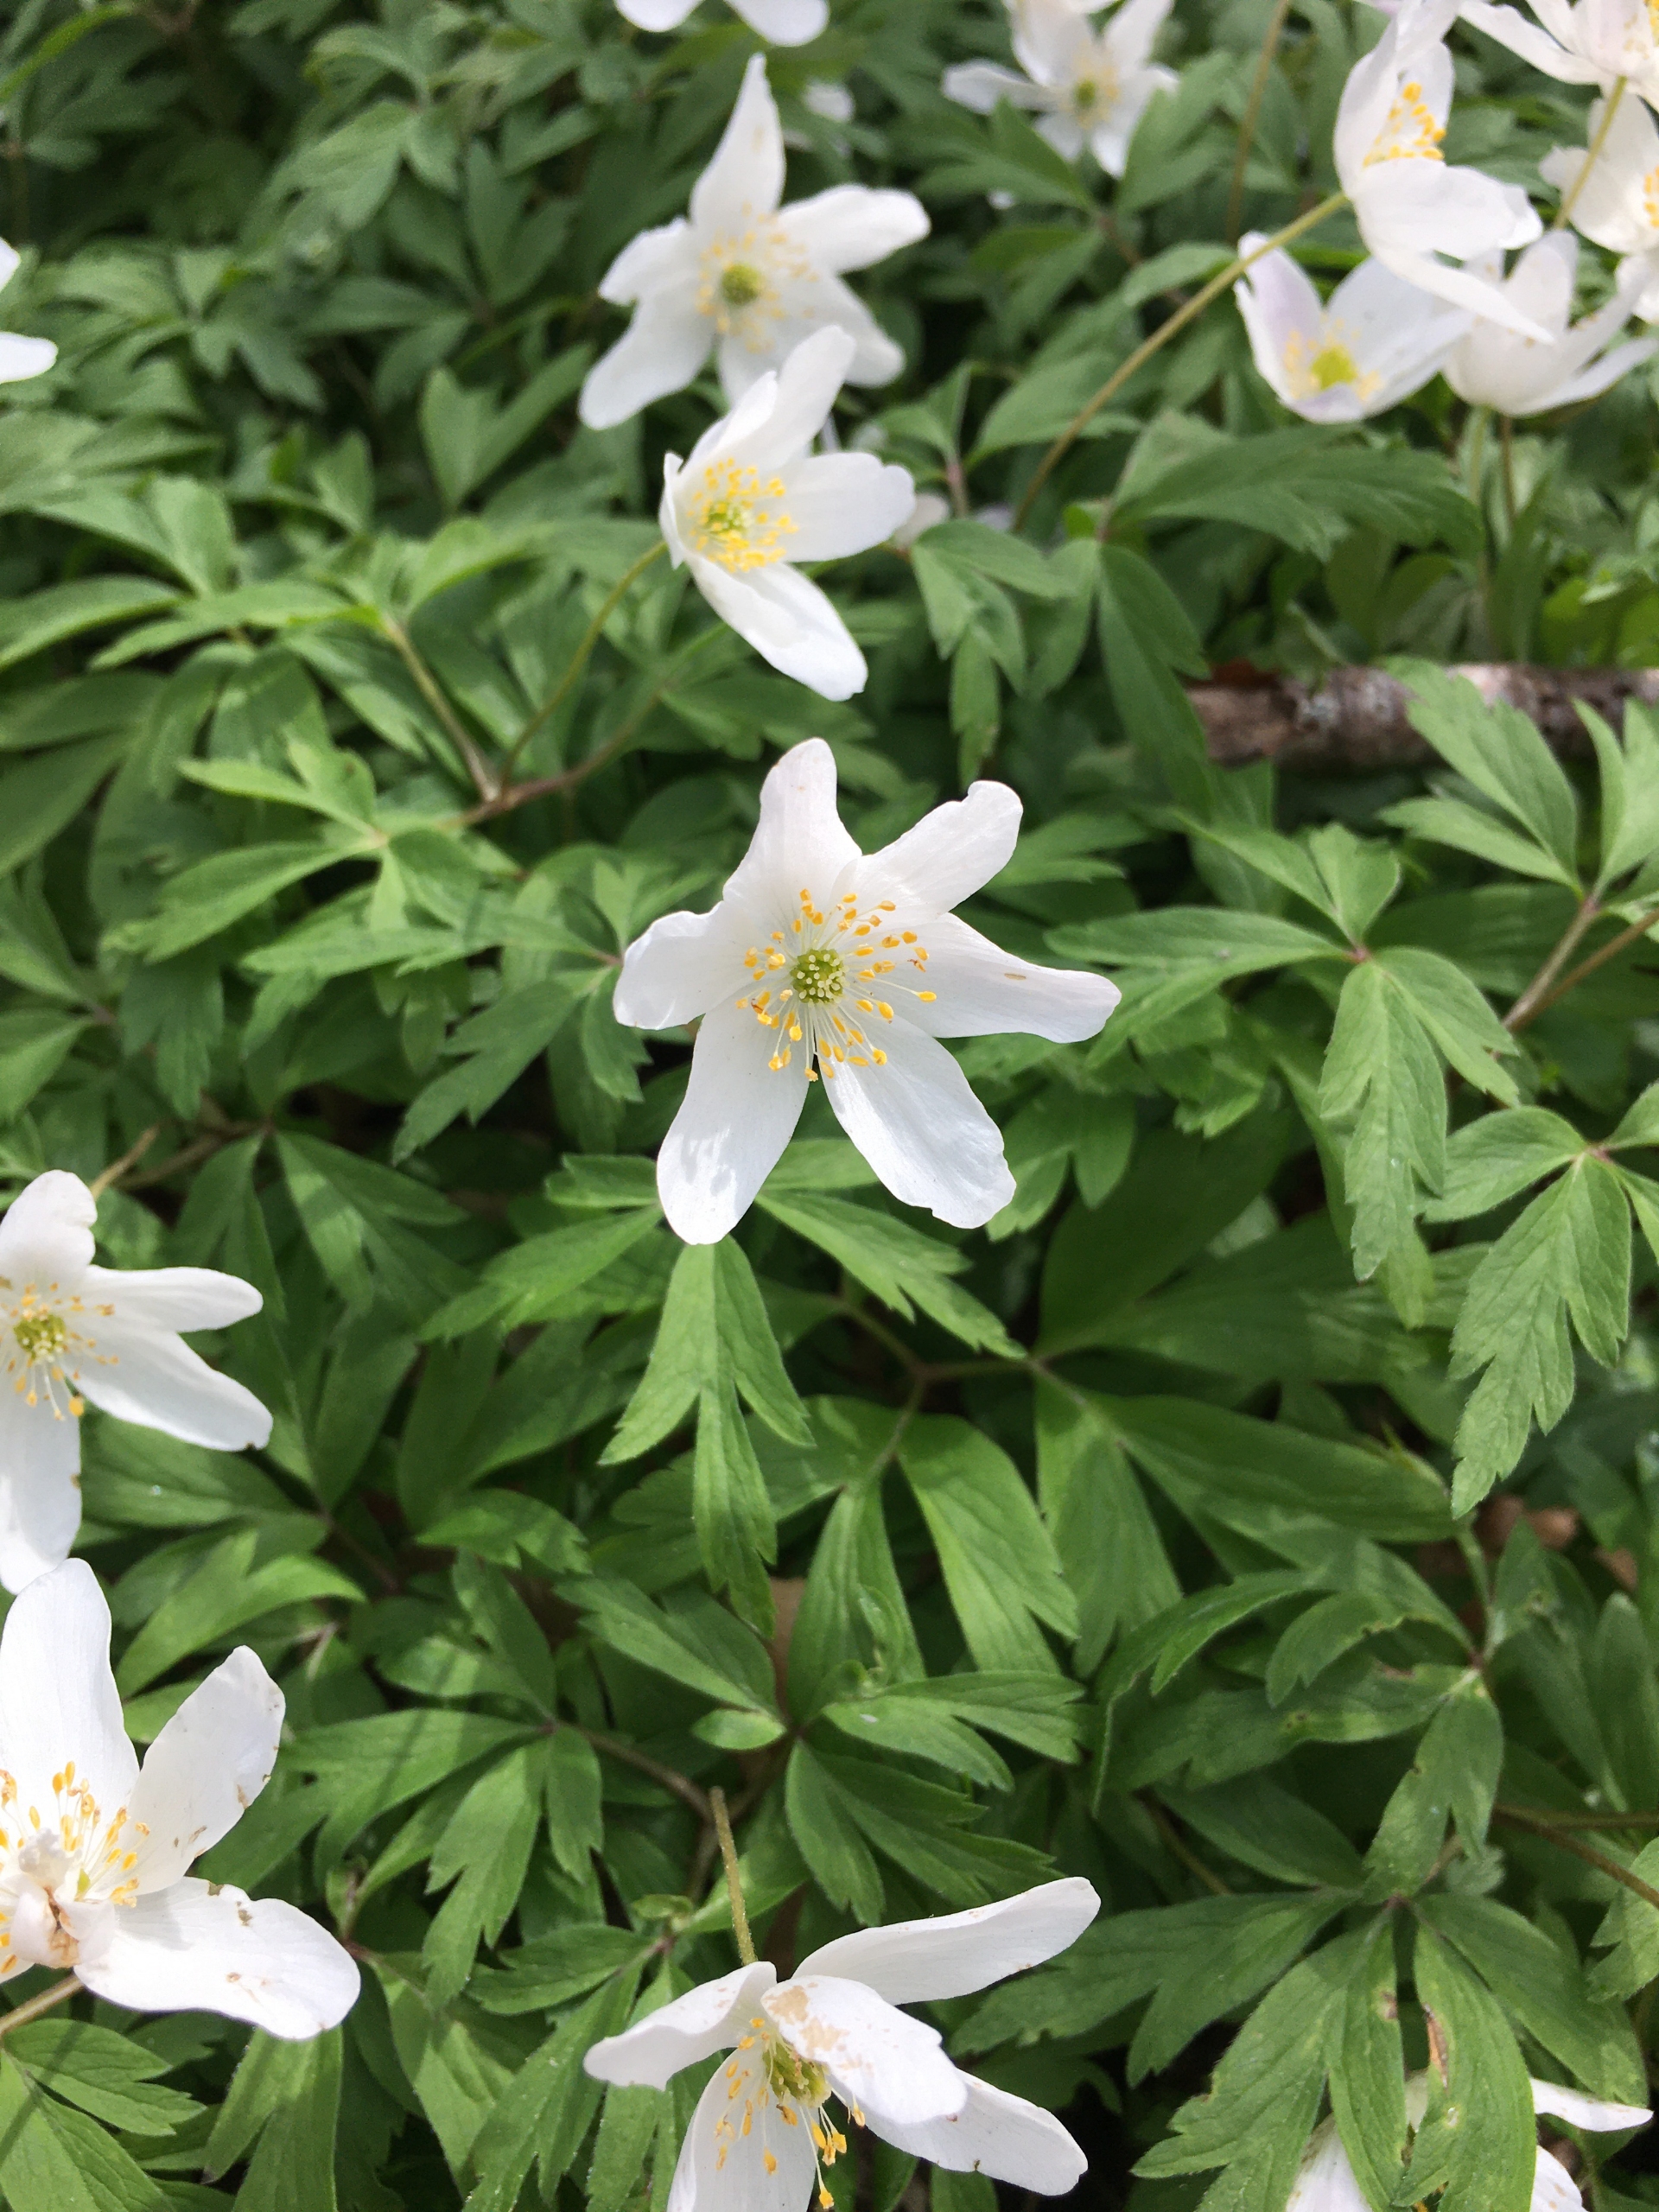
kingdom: Plantae
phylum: Tracheophyta
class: Magnoliopsida
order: Ranunculales
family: Ranunculaceae
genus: Anemone
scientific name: Anemone nemorosa
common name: Hvid anemone
